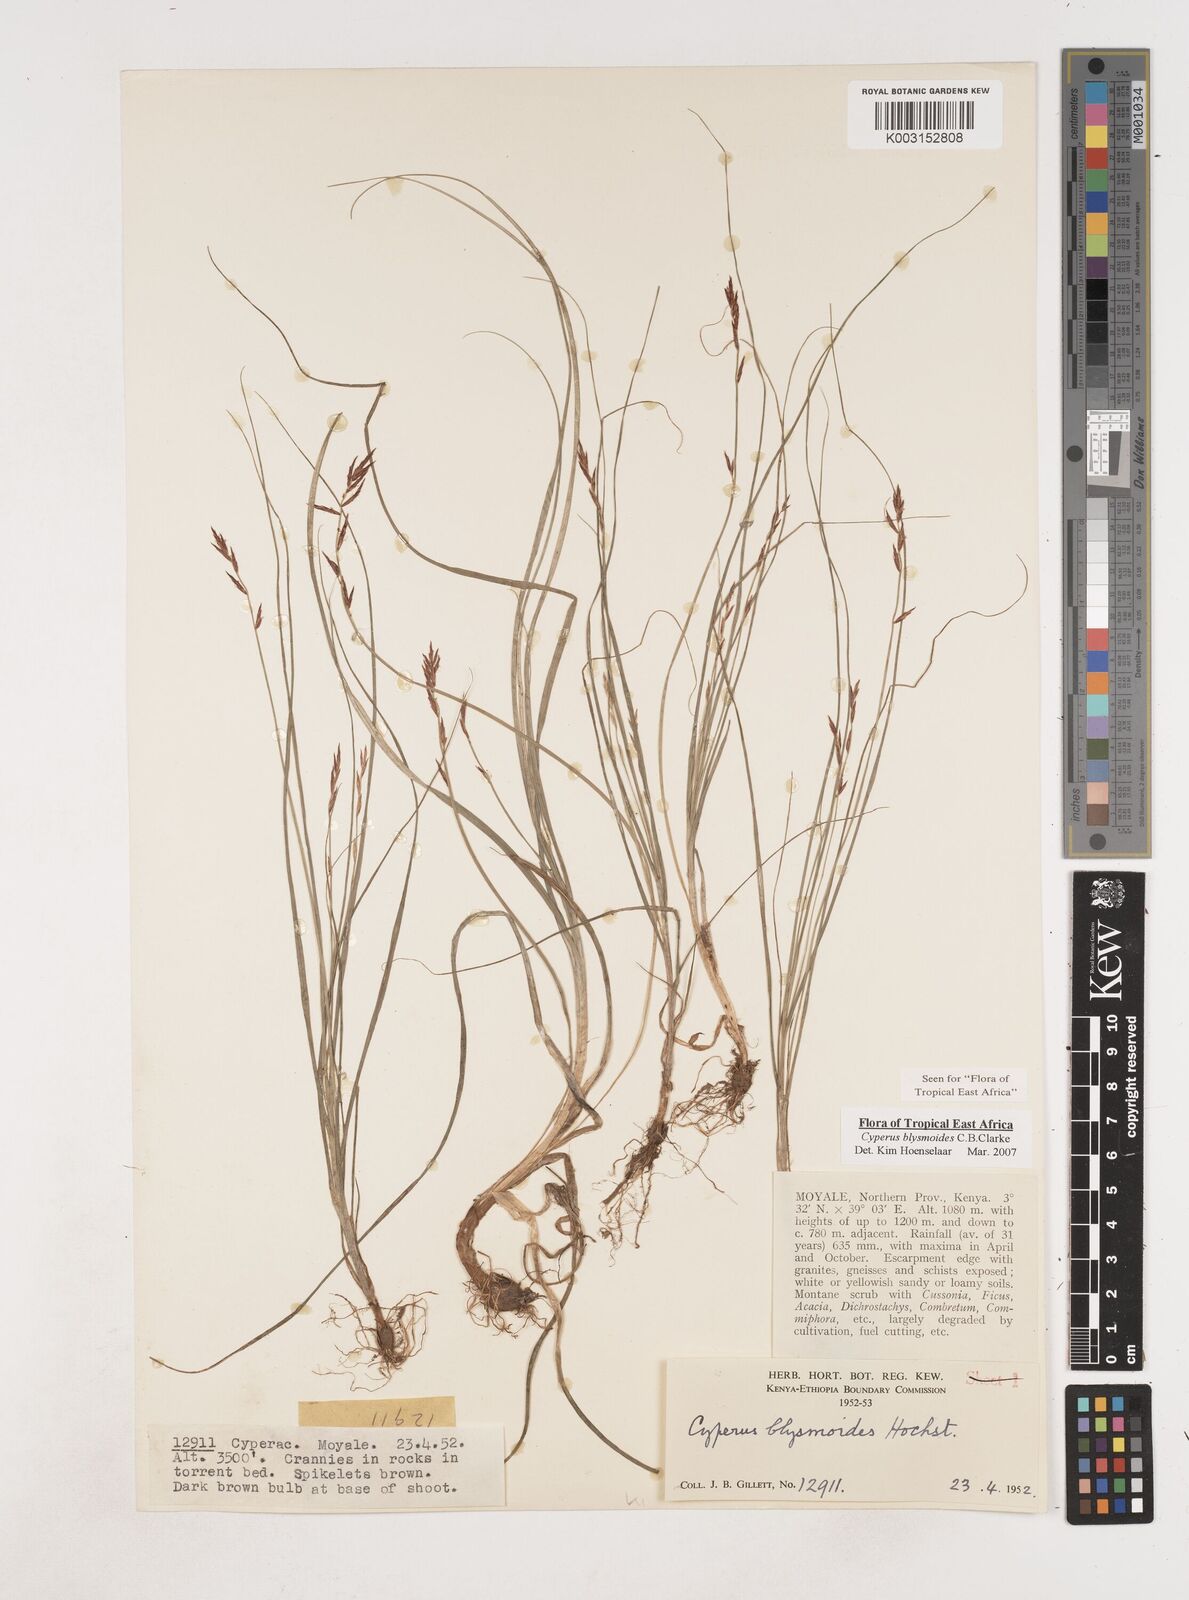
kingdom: Plantae
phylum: Tracheophyta
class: Liliopsida
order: Poales
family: Cyperaceae
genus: Cyperus
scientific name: Cyperus blysmoides
